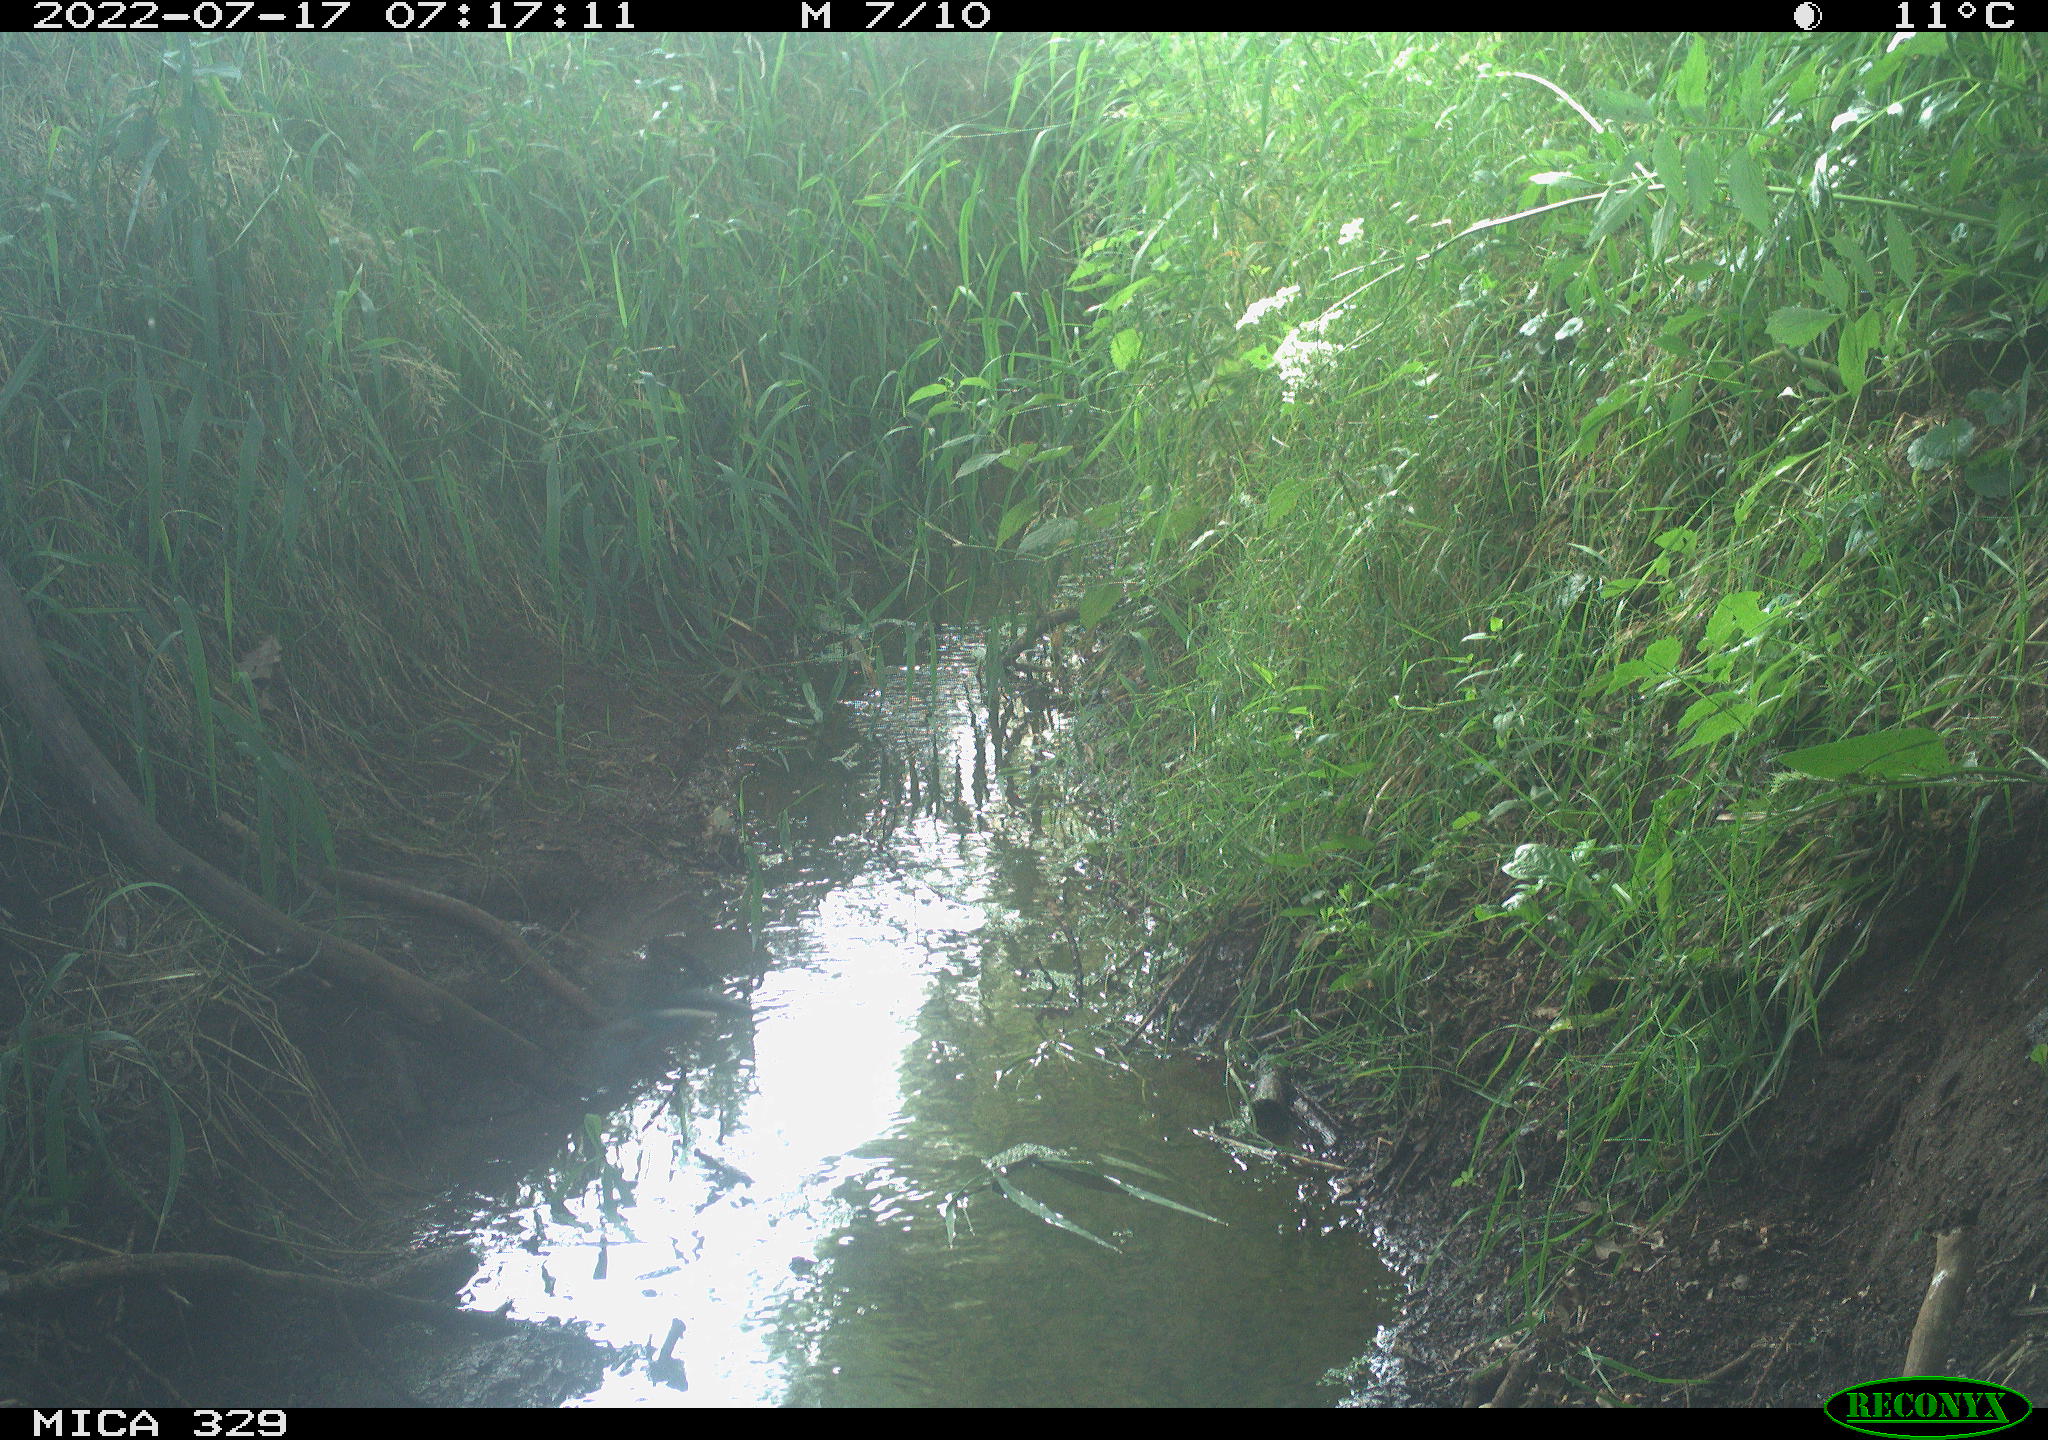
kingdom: Animalia
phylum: Chordata
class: Aves
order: Coraciiformes
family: Alcedinidae
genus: Alcedo
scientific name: Alcedo atthis
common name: Common kingfisher
